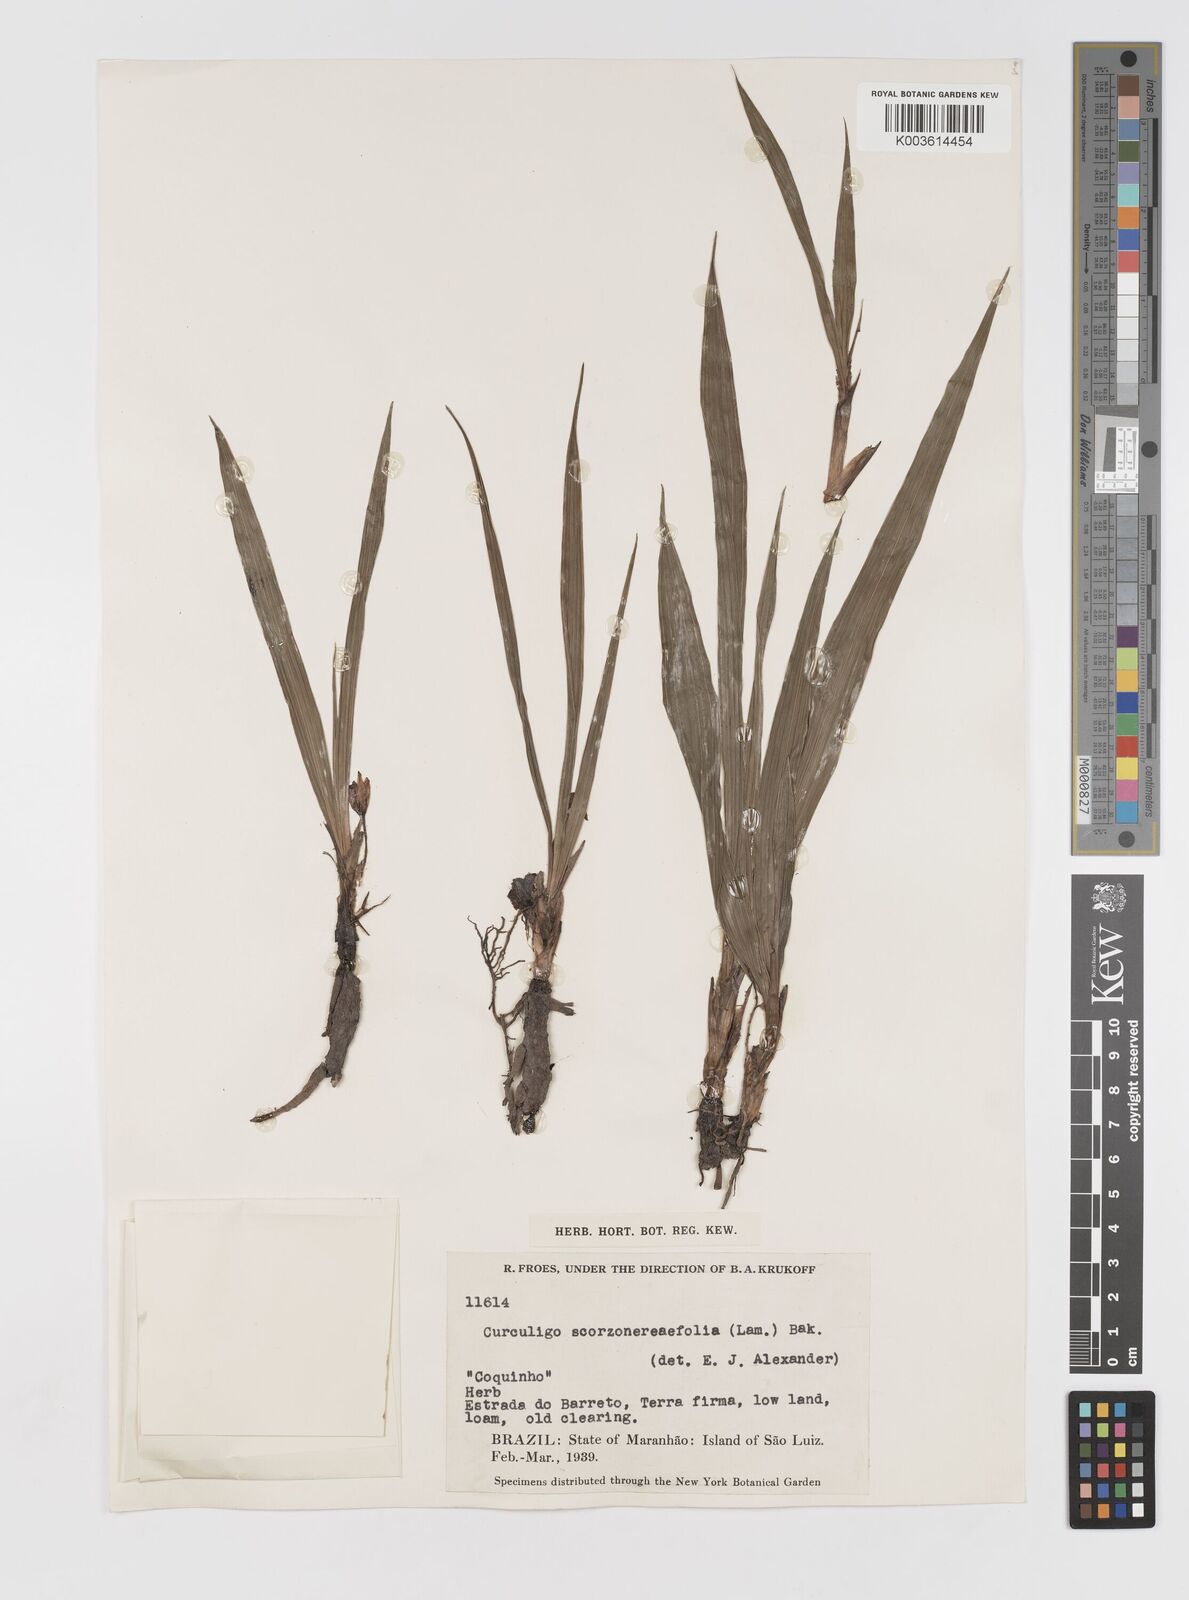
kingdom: Plantae
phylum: Tracheophyta
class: Liliopsida
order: Asparagales
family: Hypoxidaceae
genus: Curculigo
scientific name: Curculigo scorzonerifolia
